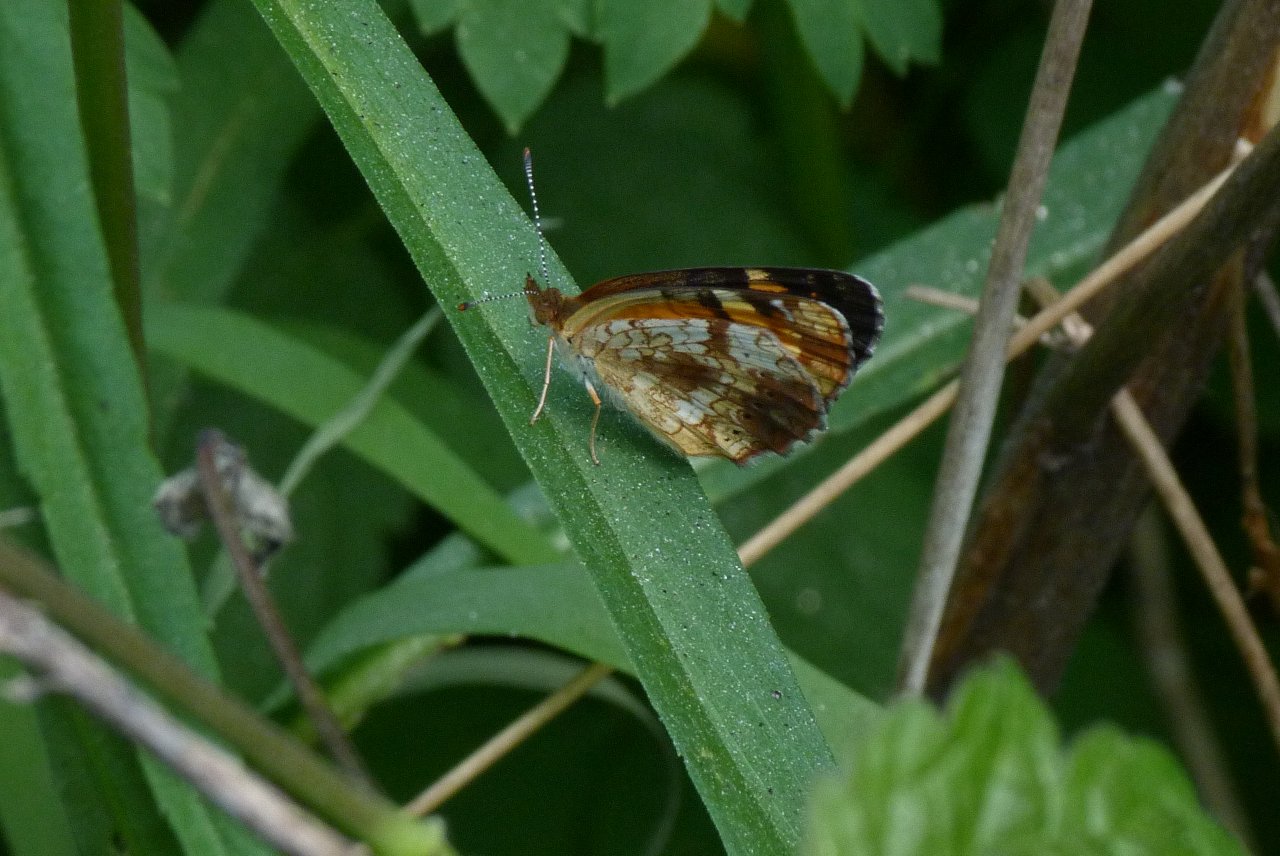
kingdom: Animalia
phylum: Arthropoda
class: Insecta
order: Lepidoptera
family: Nymphalidae
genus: Phyciodes
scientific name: Phyciodes tharos
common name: Pearl Crescent
